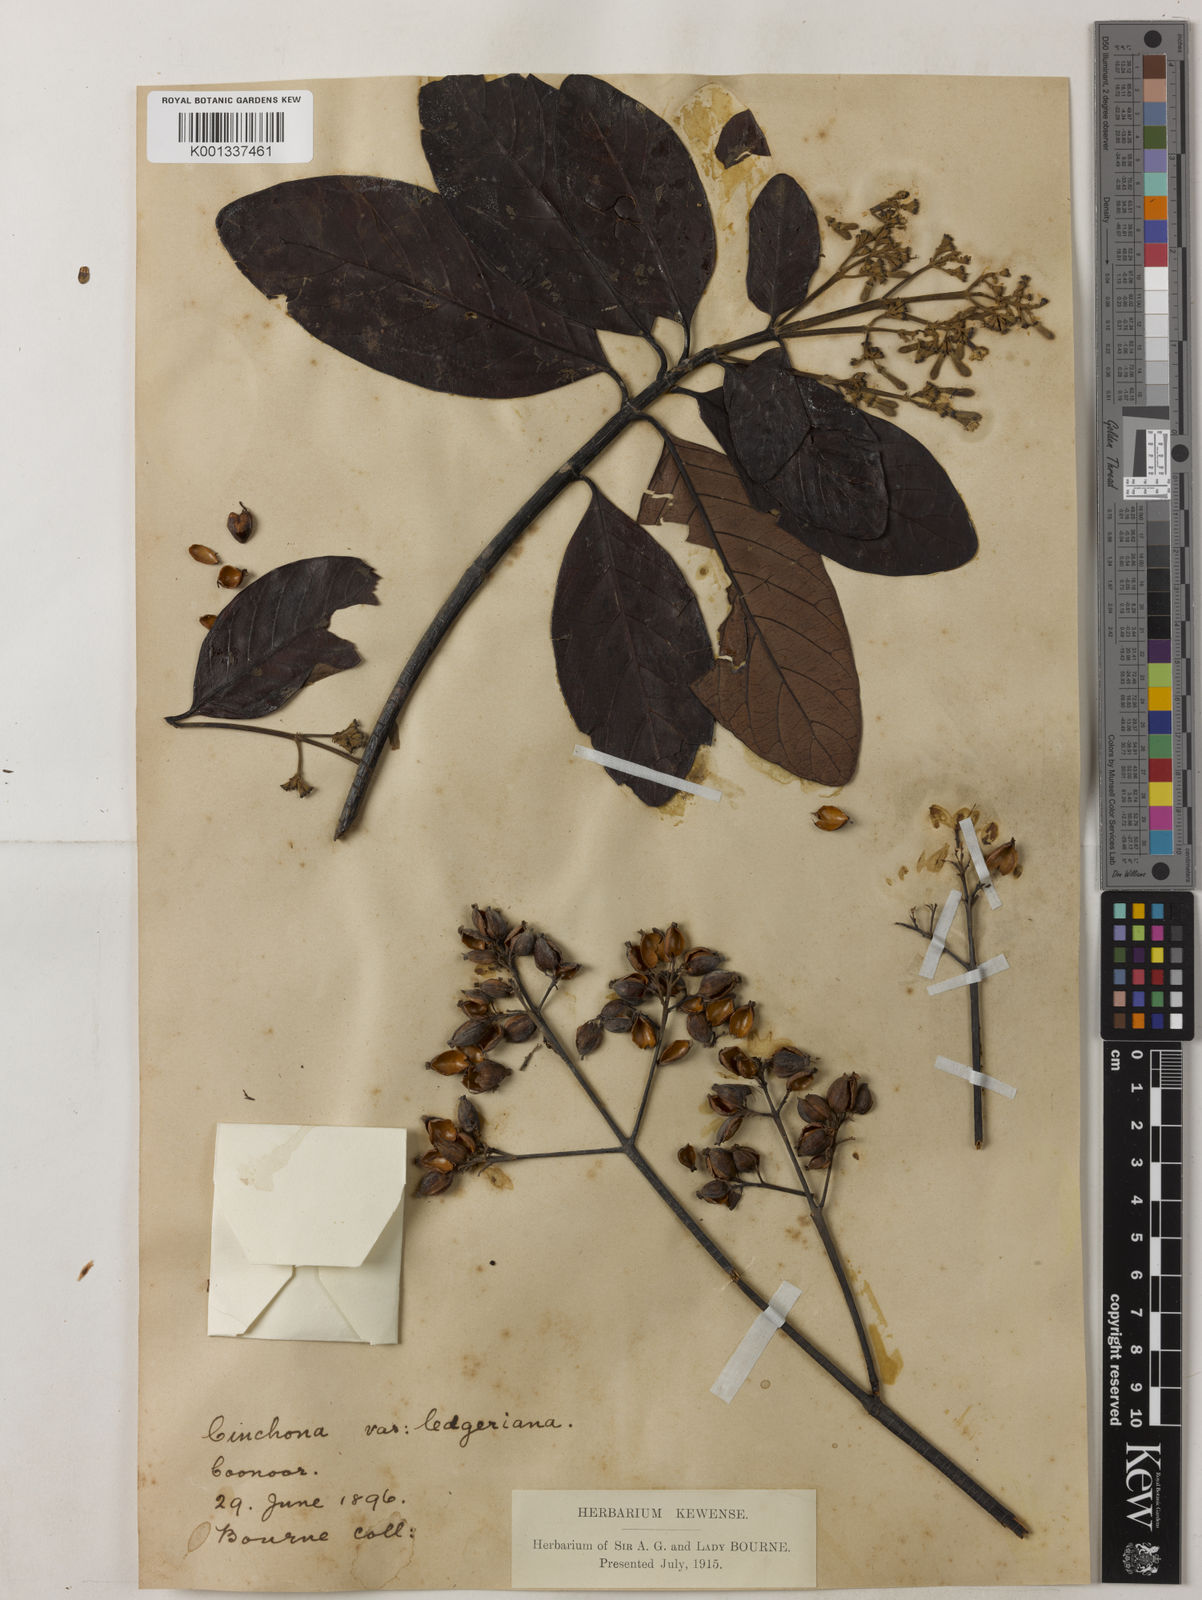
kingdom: Plantae
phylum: Tracheophyta
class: Magnoliopsida
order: Gentianales
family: Rubiaceae
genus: Cinchona
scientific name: Cinchona calisaya
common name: Ledgerbark
